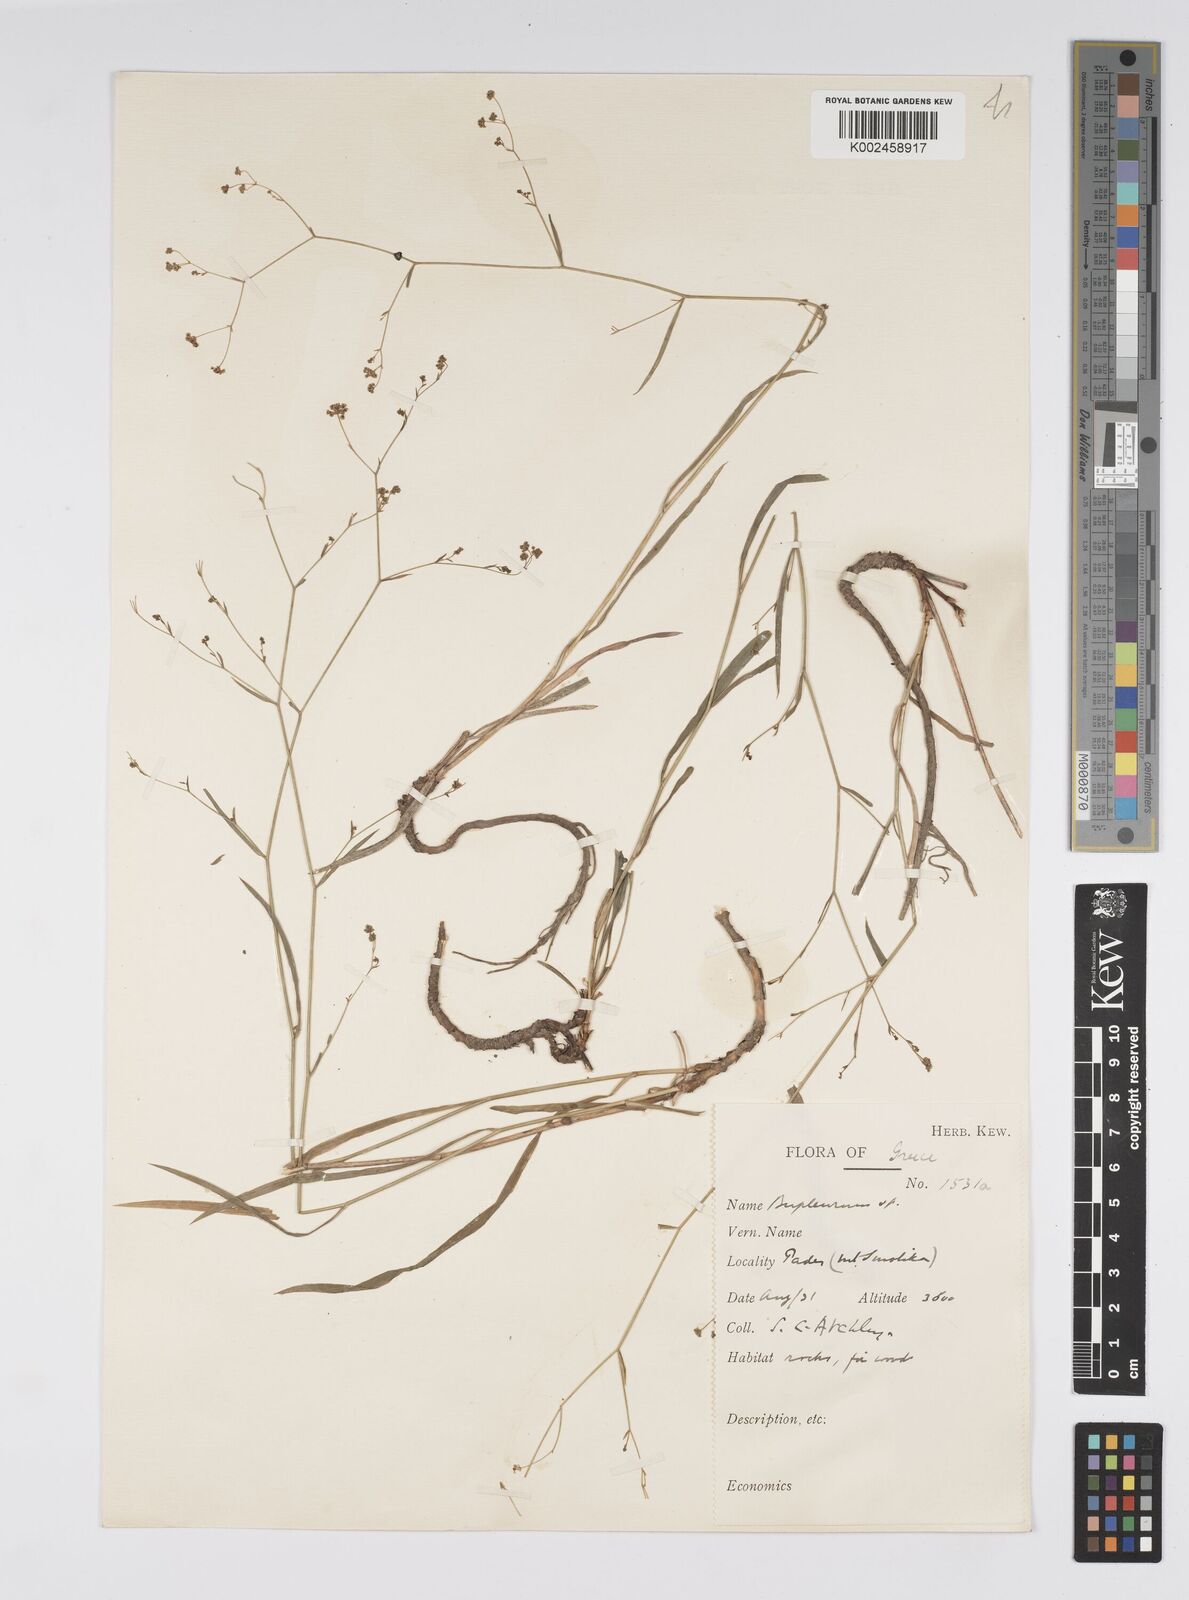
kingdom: Plantae
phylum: Tracheophyta
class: Magnoliopsida
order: Apiales
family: Apiaceae
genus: Bupleurum
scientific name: Bupleurum falcatum
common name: Sickle-leaved hare's-ear
